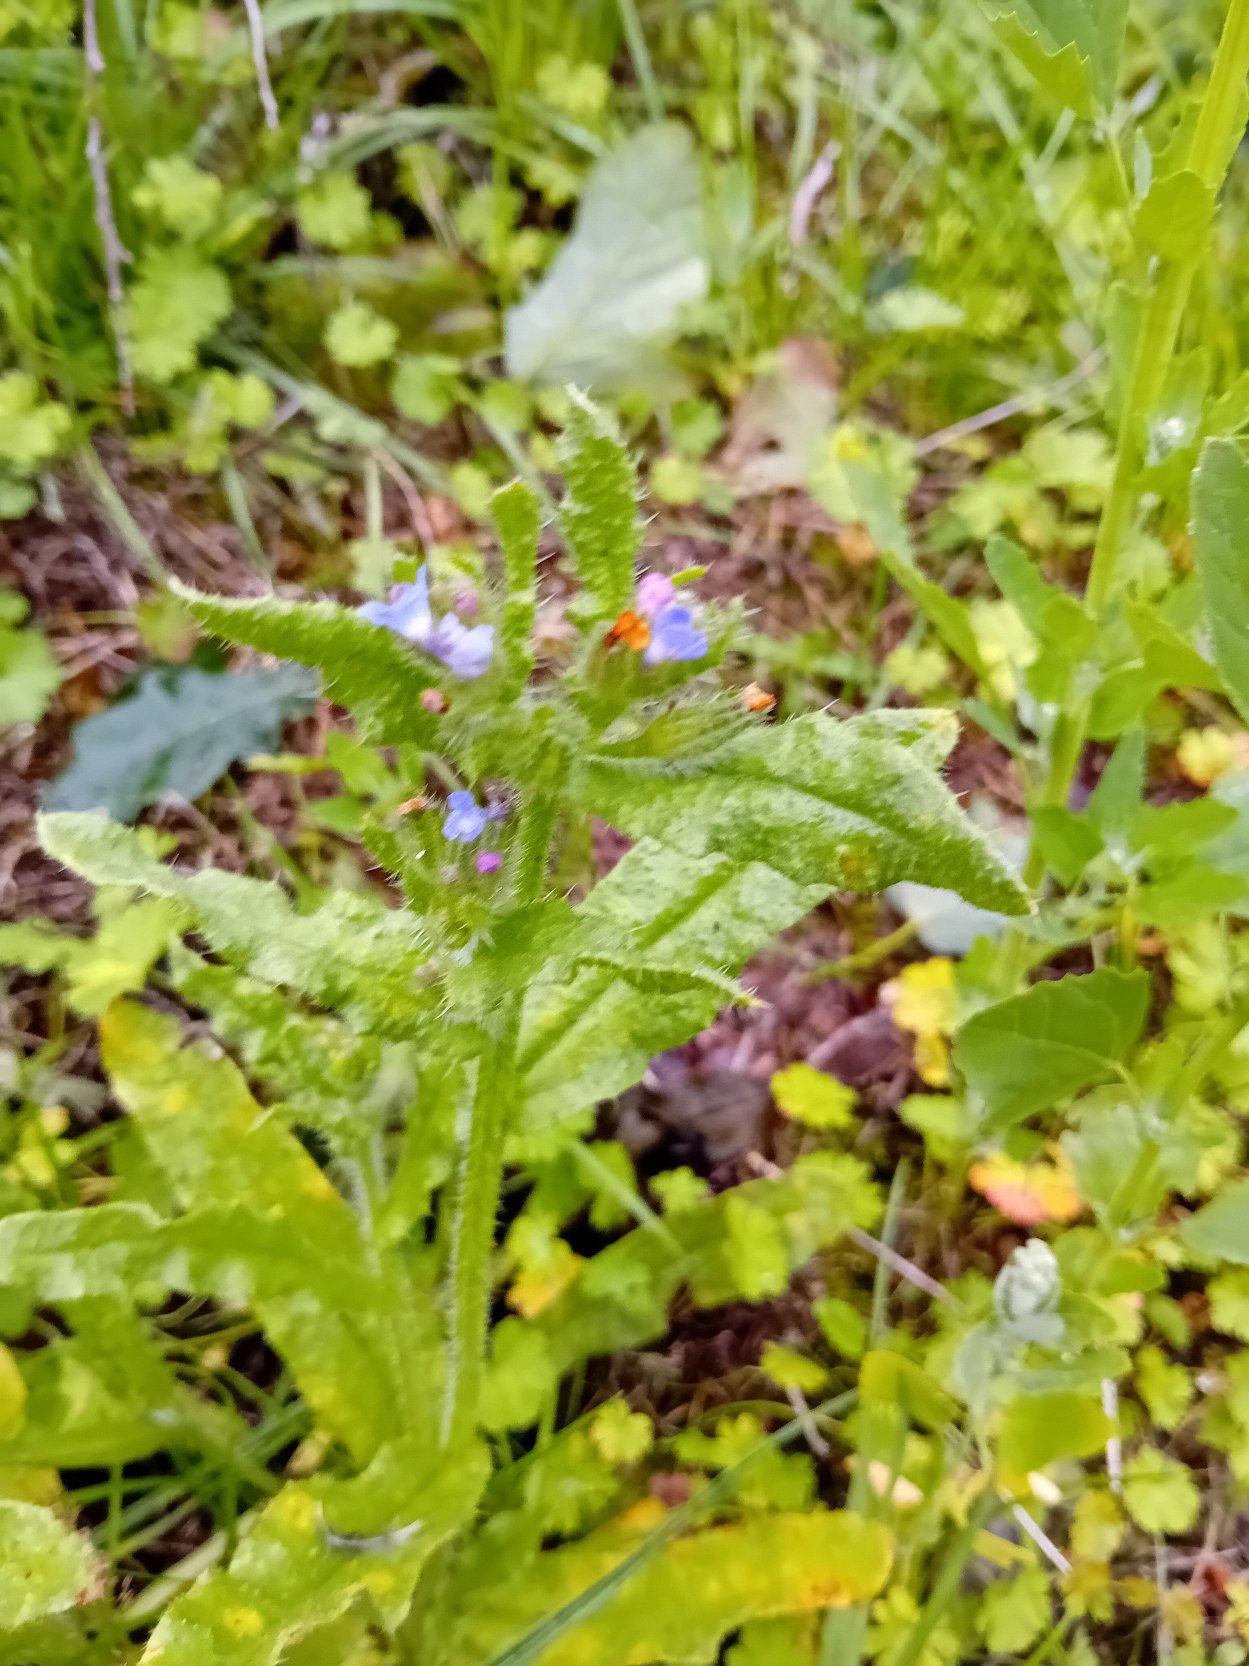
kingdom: Plantae
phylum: Tracheophyta
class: Magnoliopsida
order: Boraginales
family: Boraginaceae
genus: Lycopsis
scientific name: Lycopsis arvensis
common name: Krumhals
